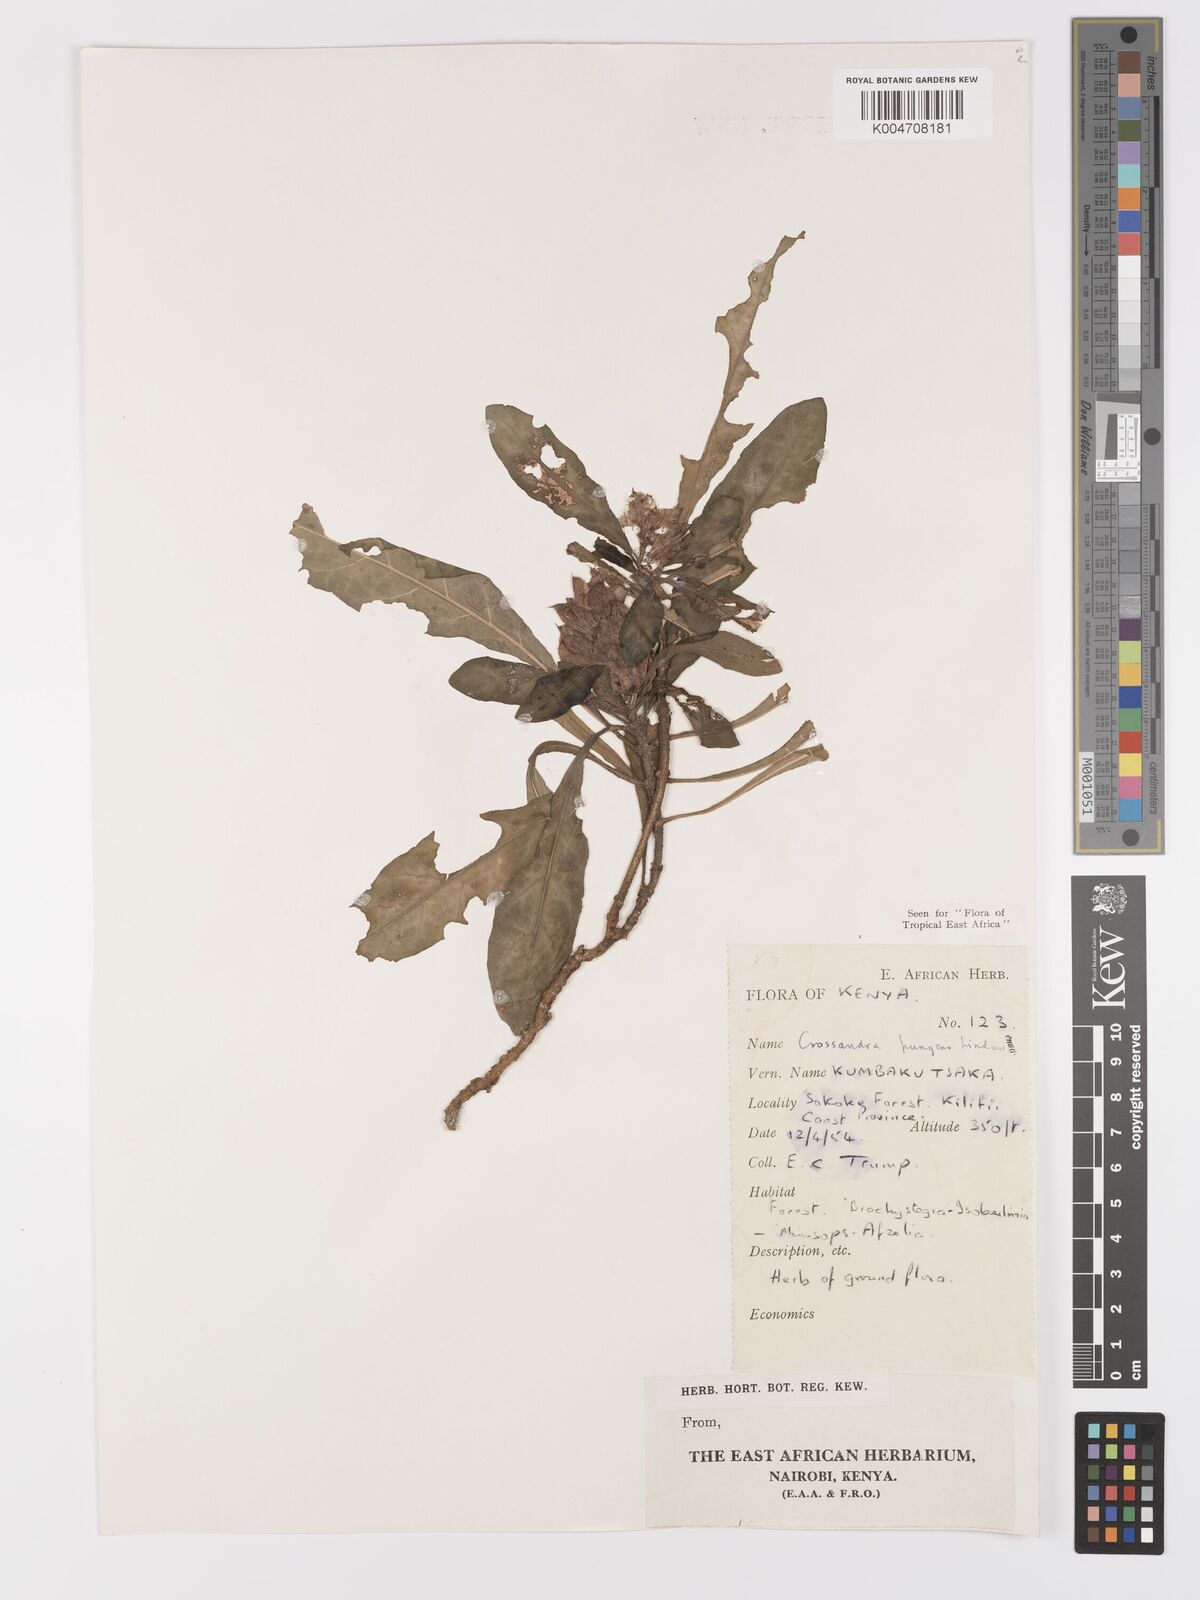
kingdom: Plantae
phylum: Tracheophyta
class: Magnoliopsida
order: Lamiales
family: Acanthaceae
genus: Crossandra
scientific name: Crossandra pungens
